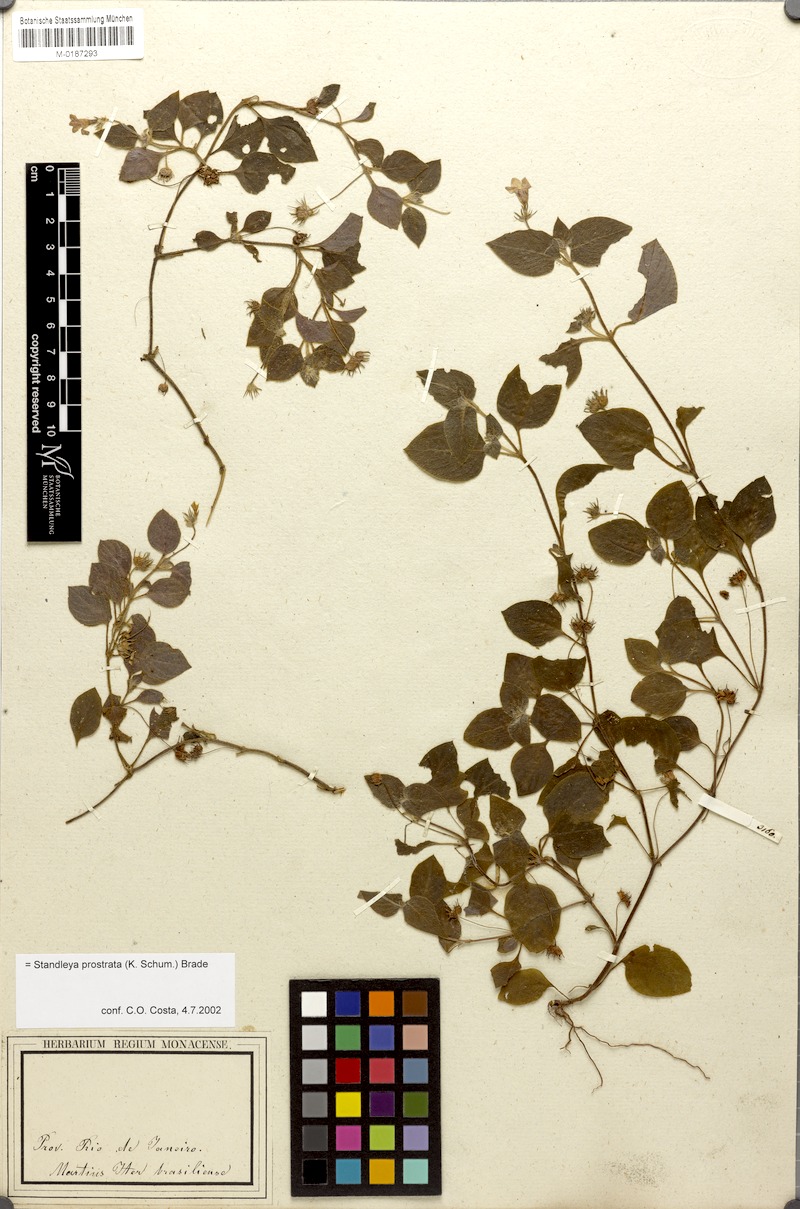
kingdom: Plantae
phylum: Tracheophyta
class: Magnoliopsida
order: Gentianales
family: Rubiaceae
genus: Standleya
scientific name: Standleya prostrata
